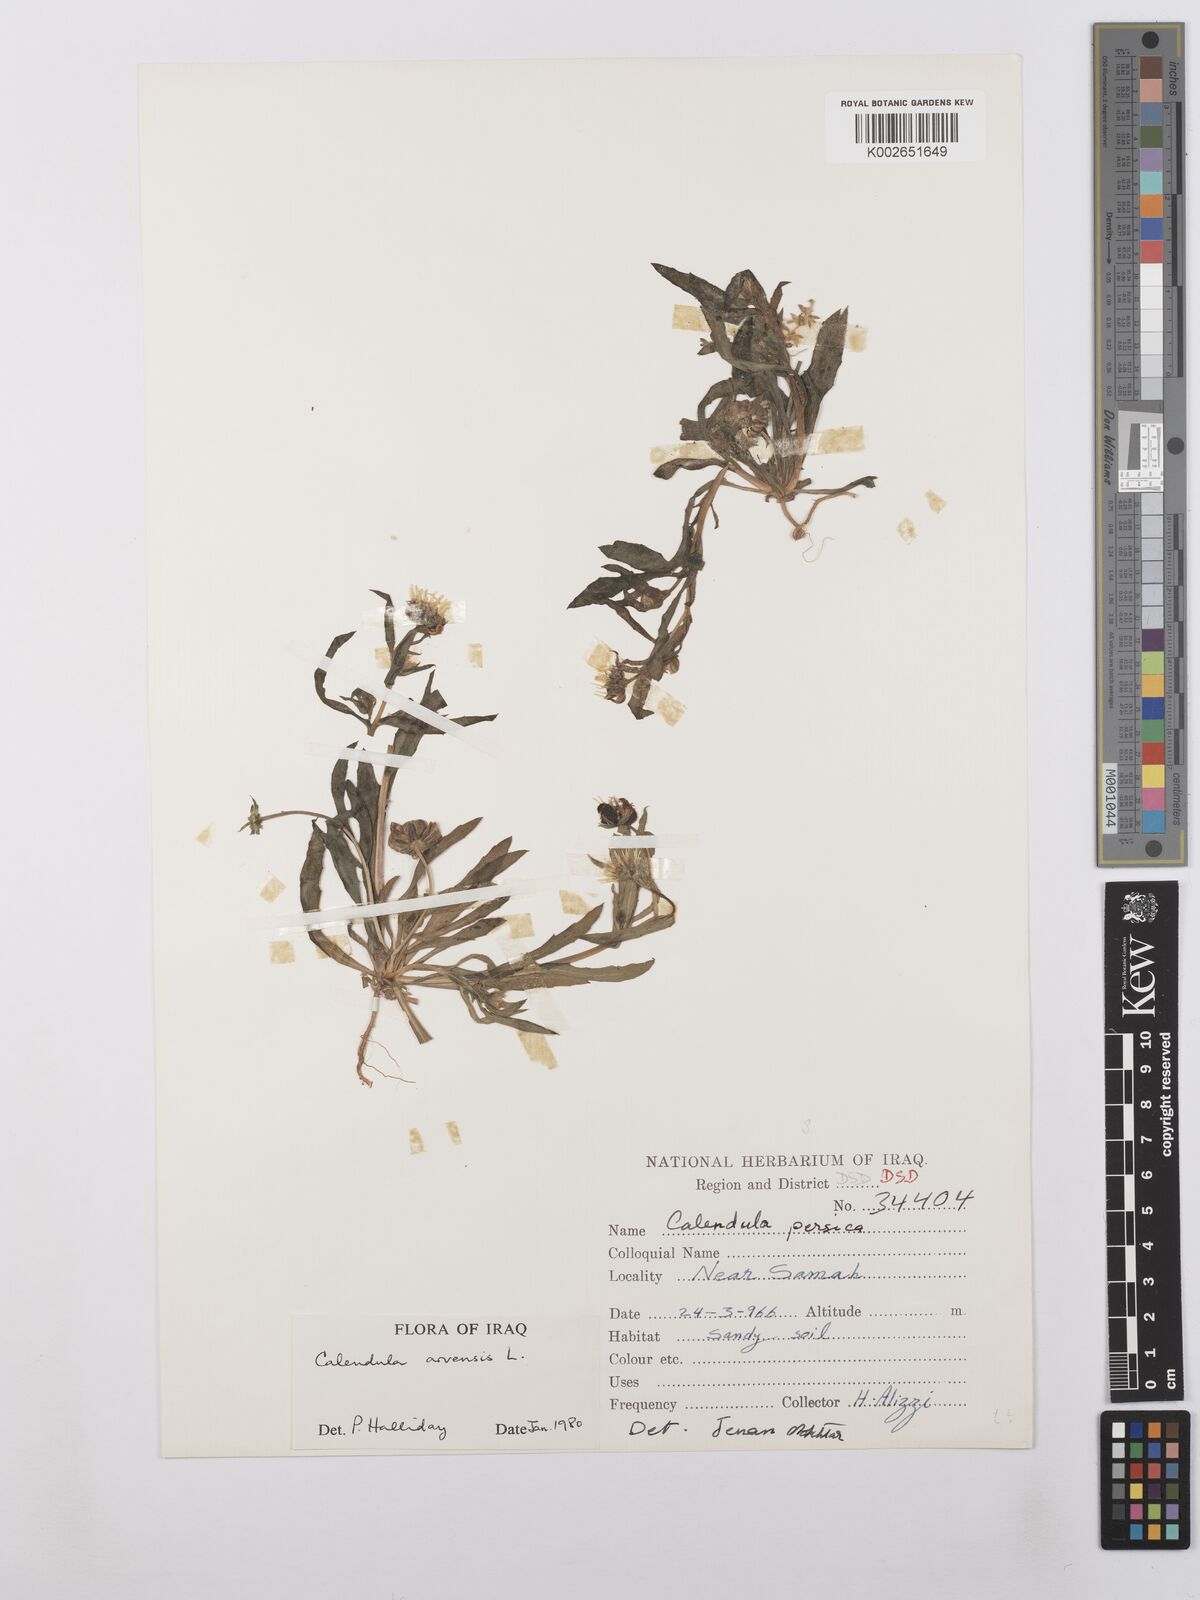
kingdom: Plantae
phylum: Tracheophyta
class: Magnoliopsida
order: Asterales
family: Asteraceae
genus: Calendula
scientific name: Calendula arvensis
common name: Field marigold
